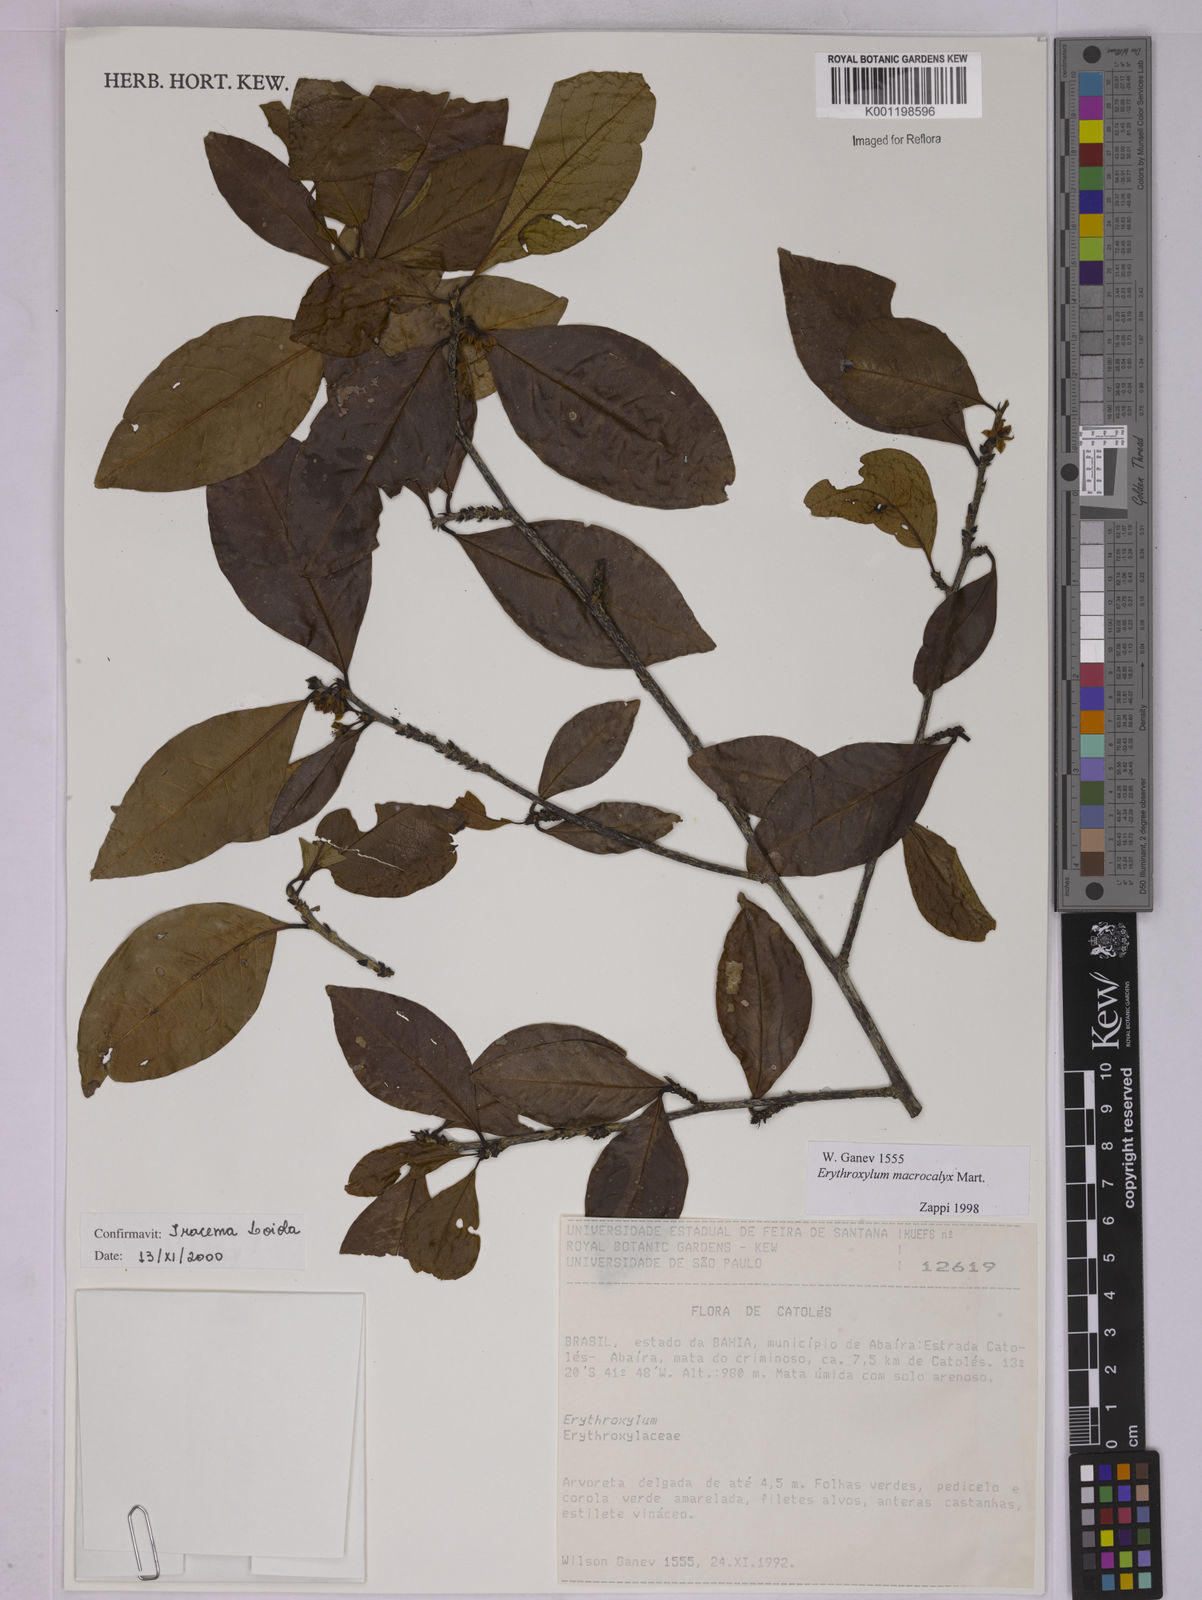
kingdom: Plantae
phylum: Tracheophyta
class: Magnoliopsida
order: Malpighiales
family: Erythroxylaceae
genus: Erythroxylum
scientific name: Erythroxylum macrocalyx
